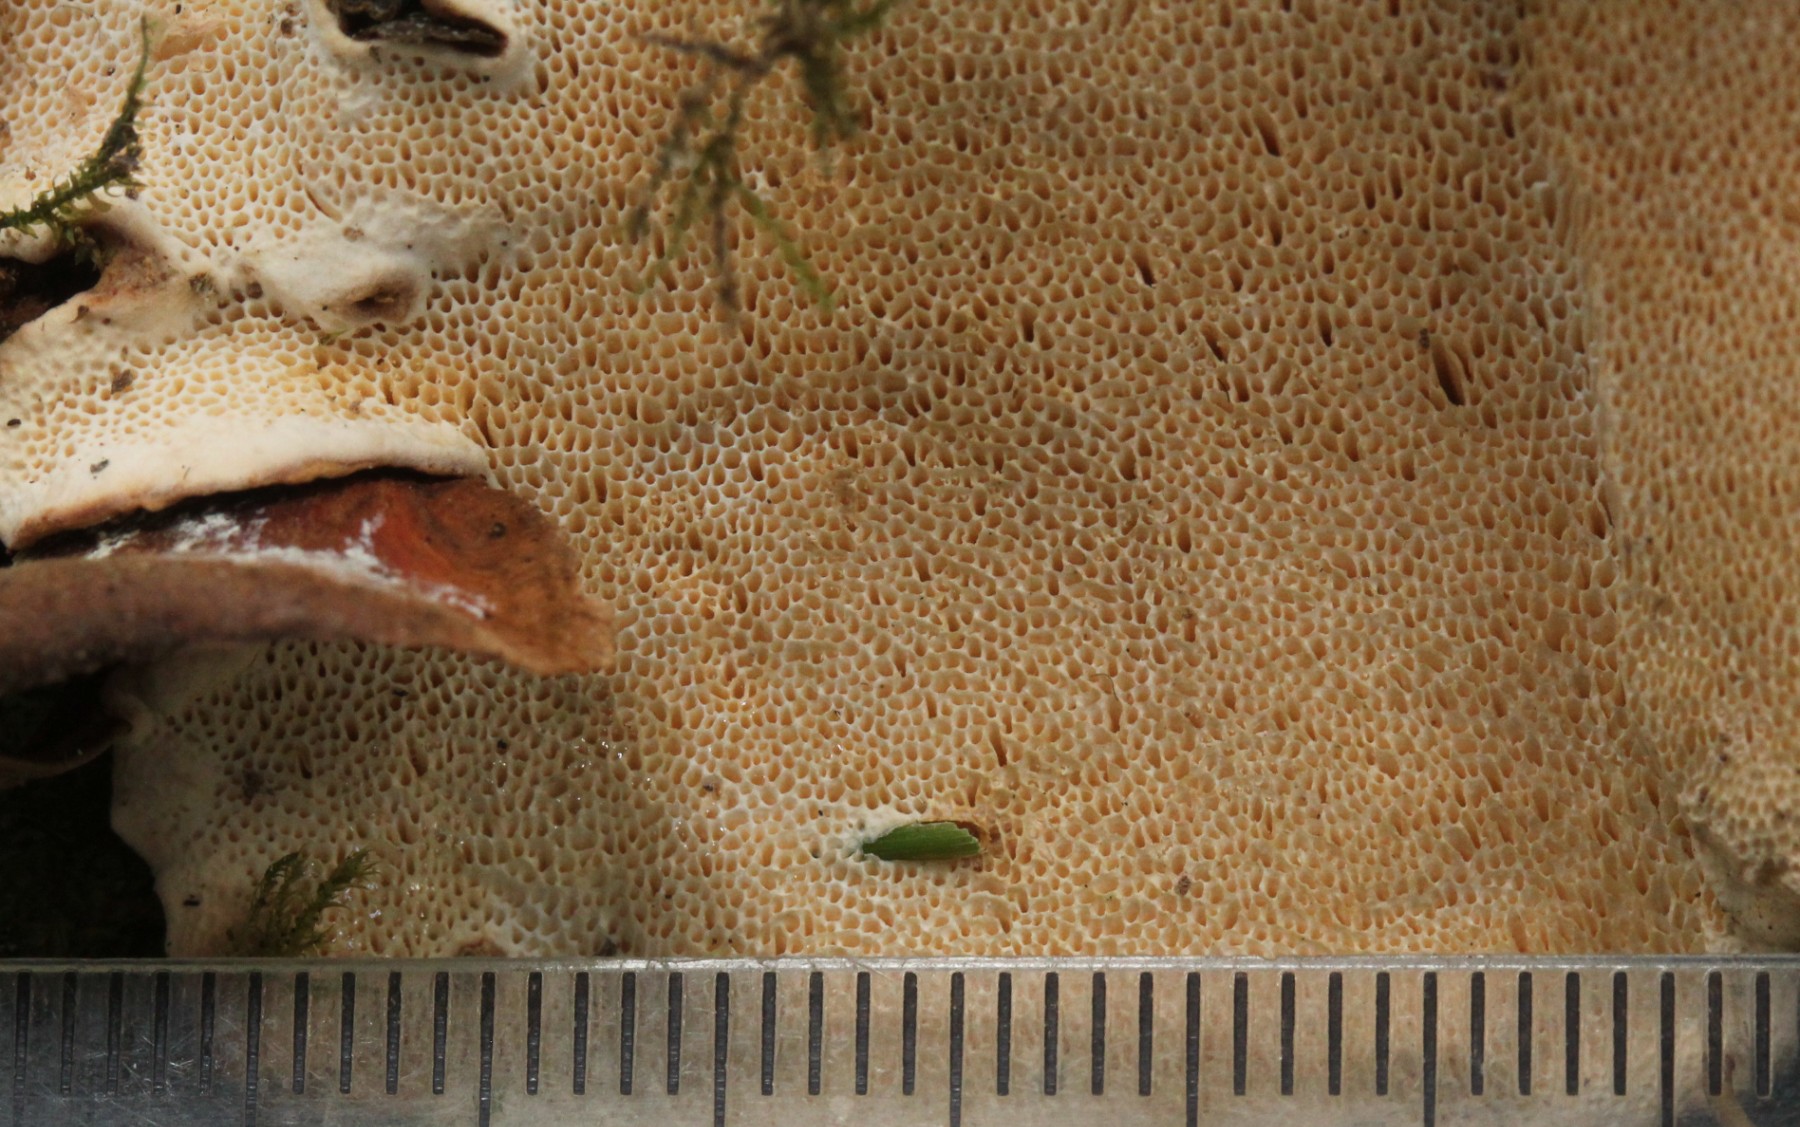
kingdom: Fungi
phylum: Basidiomycota
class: Agaricomycetes
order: Russulales
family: Bondarzewiaceae
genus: Heterobasidion
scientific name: Heterobasidion
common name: rodfordærver
